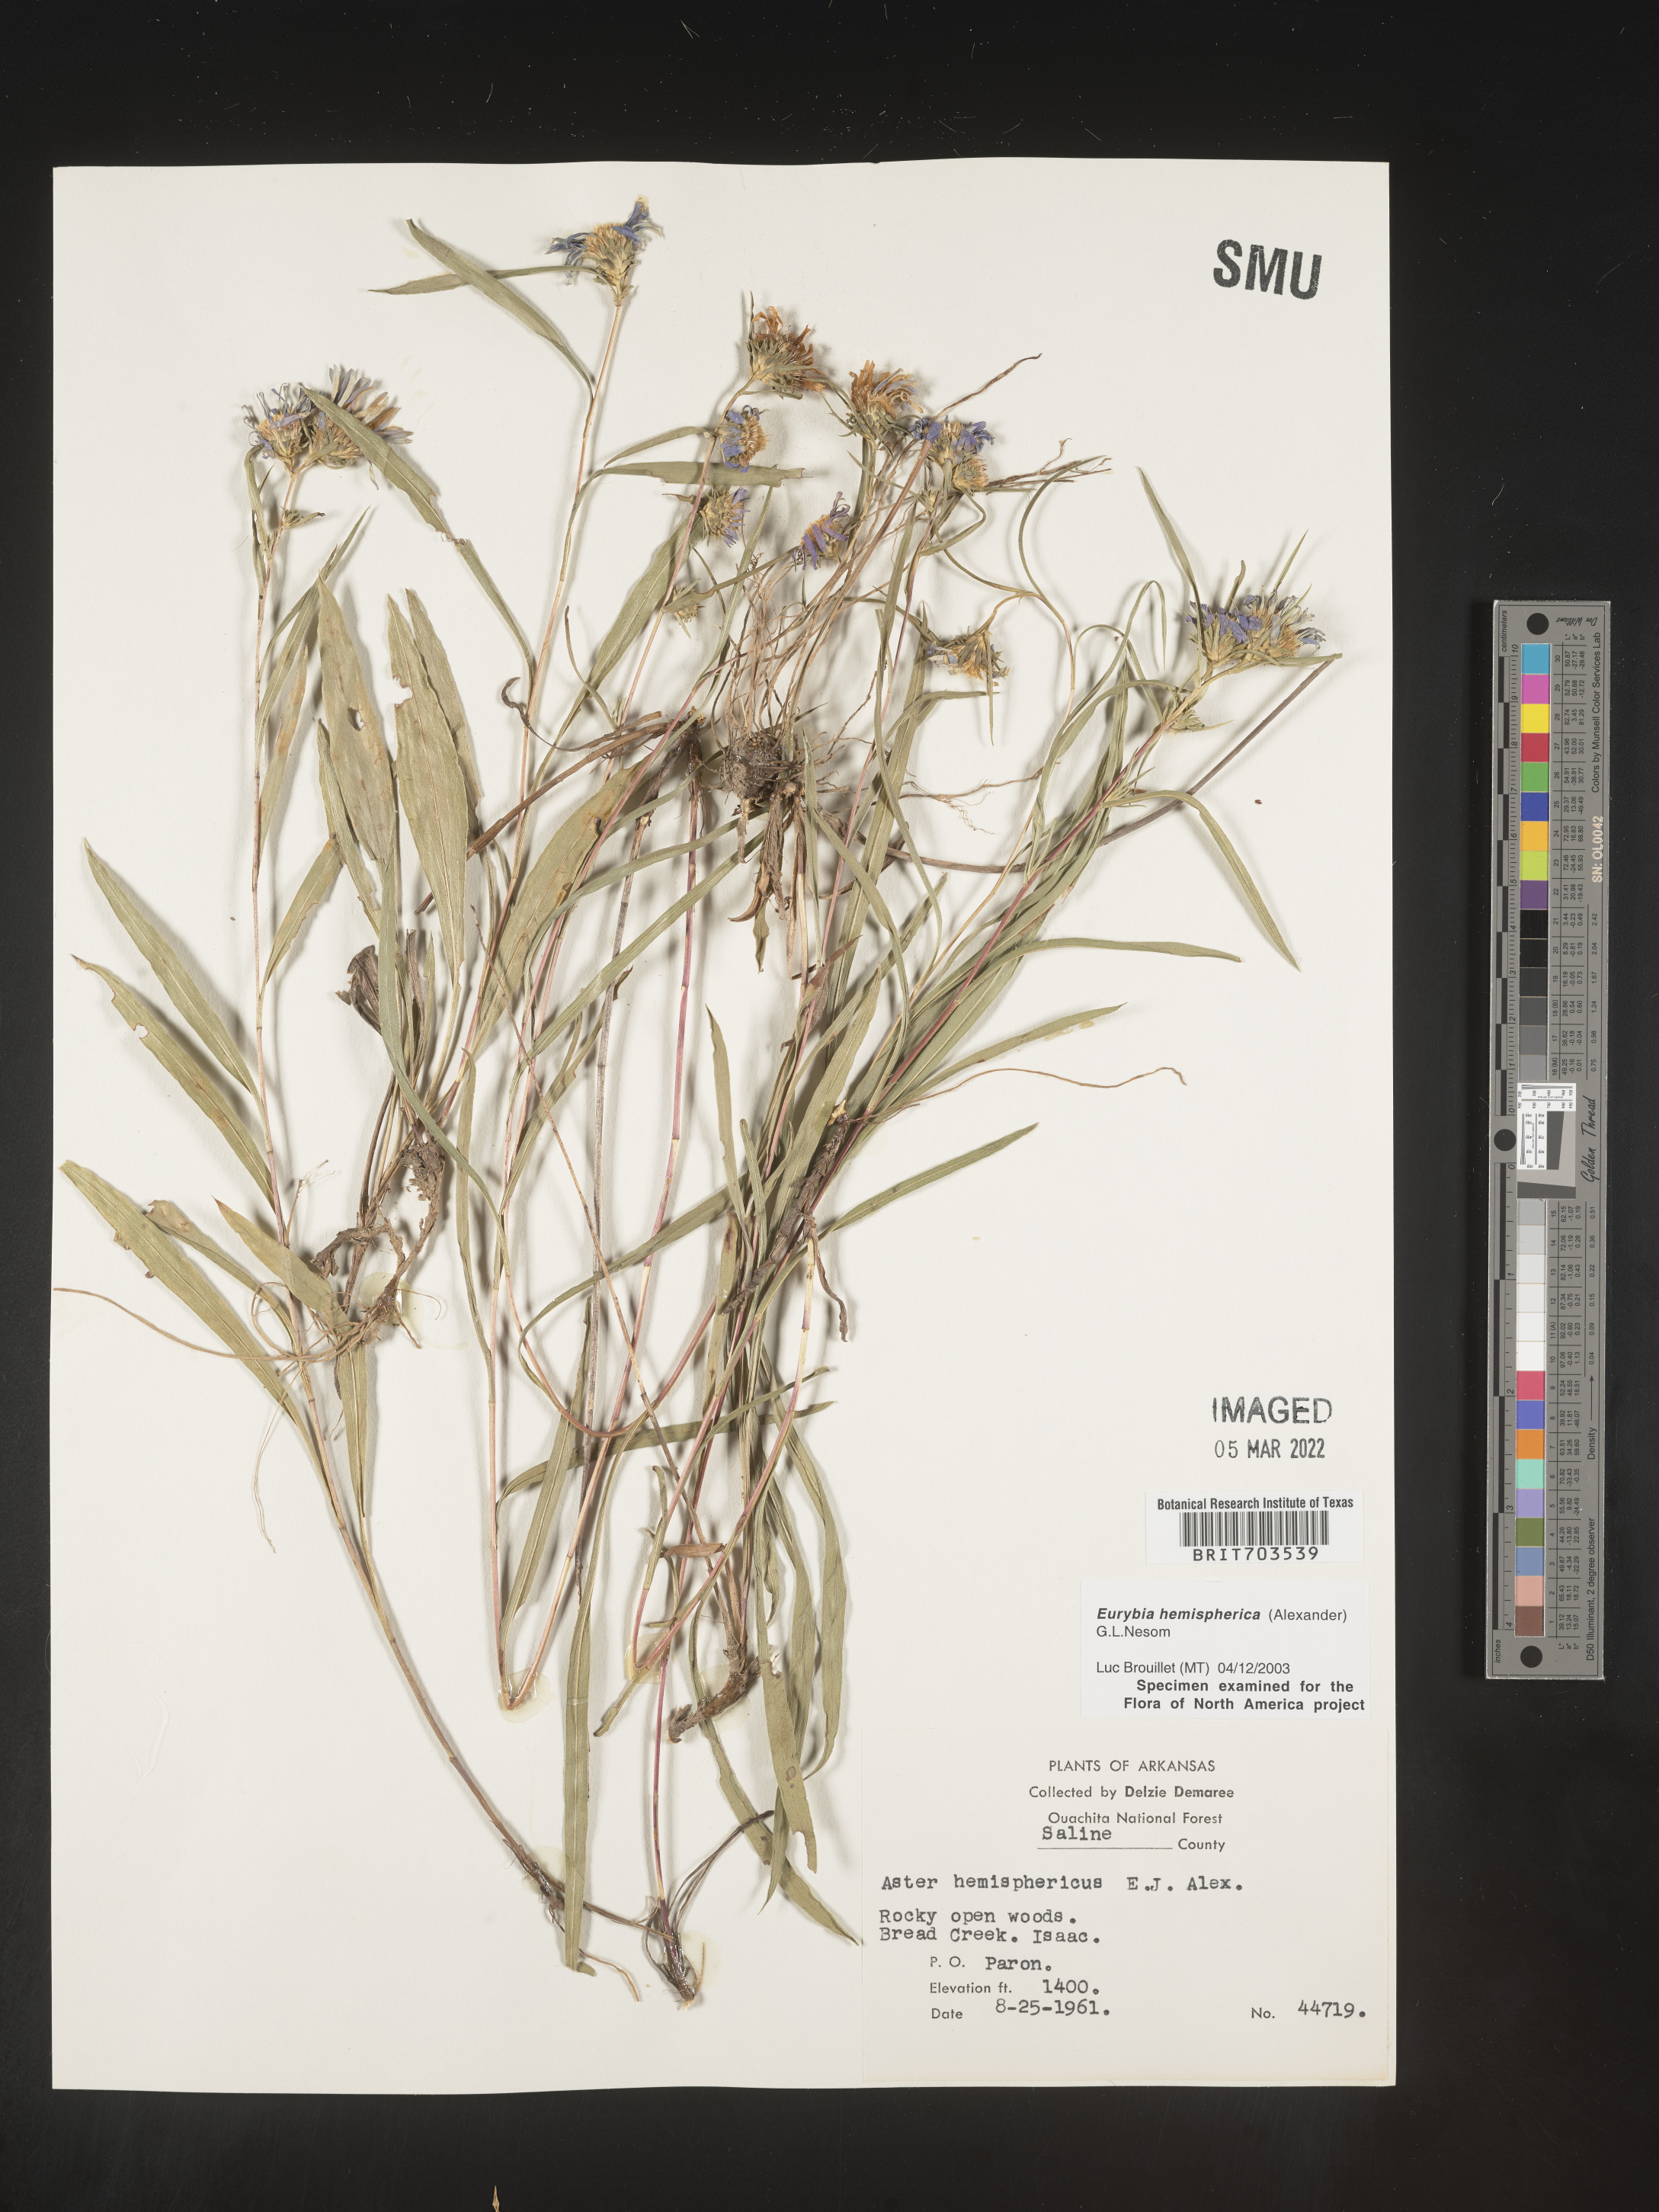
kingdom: Plantae
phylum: Tracheophyta
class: Magnoliopsida
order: Asterales
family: Asteraceae
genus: Eurybia
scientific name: Eurybia hemispherica
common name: Showy aster
